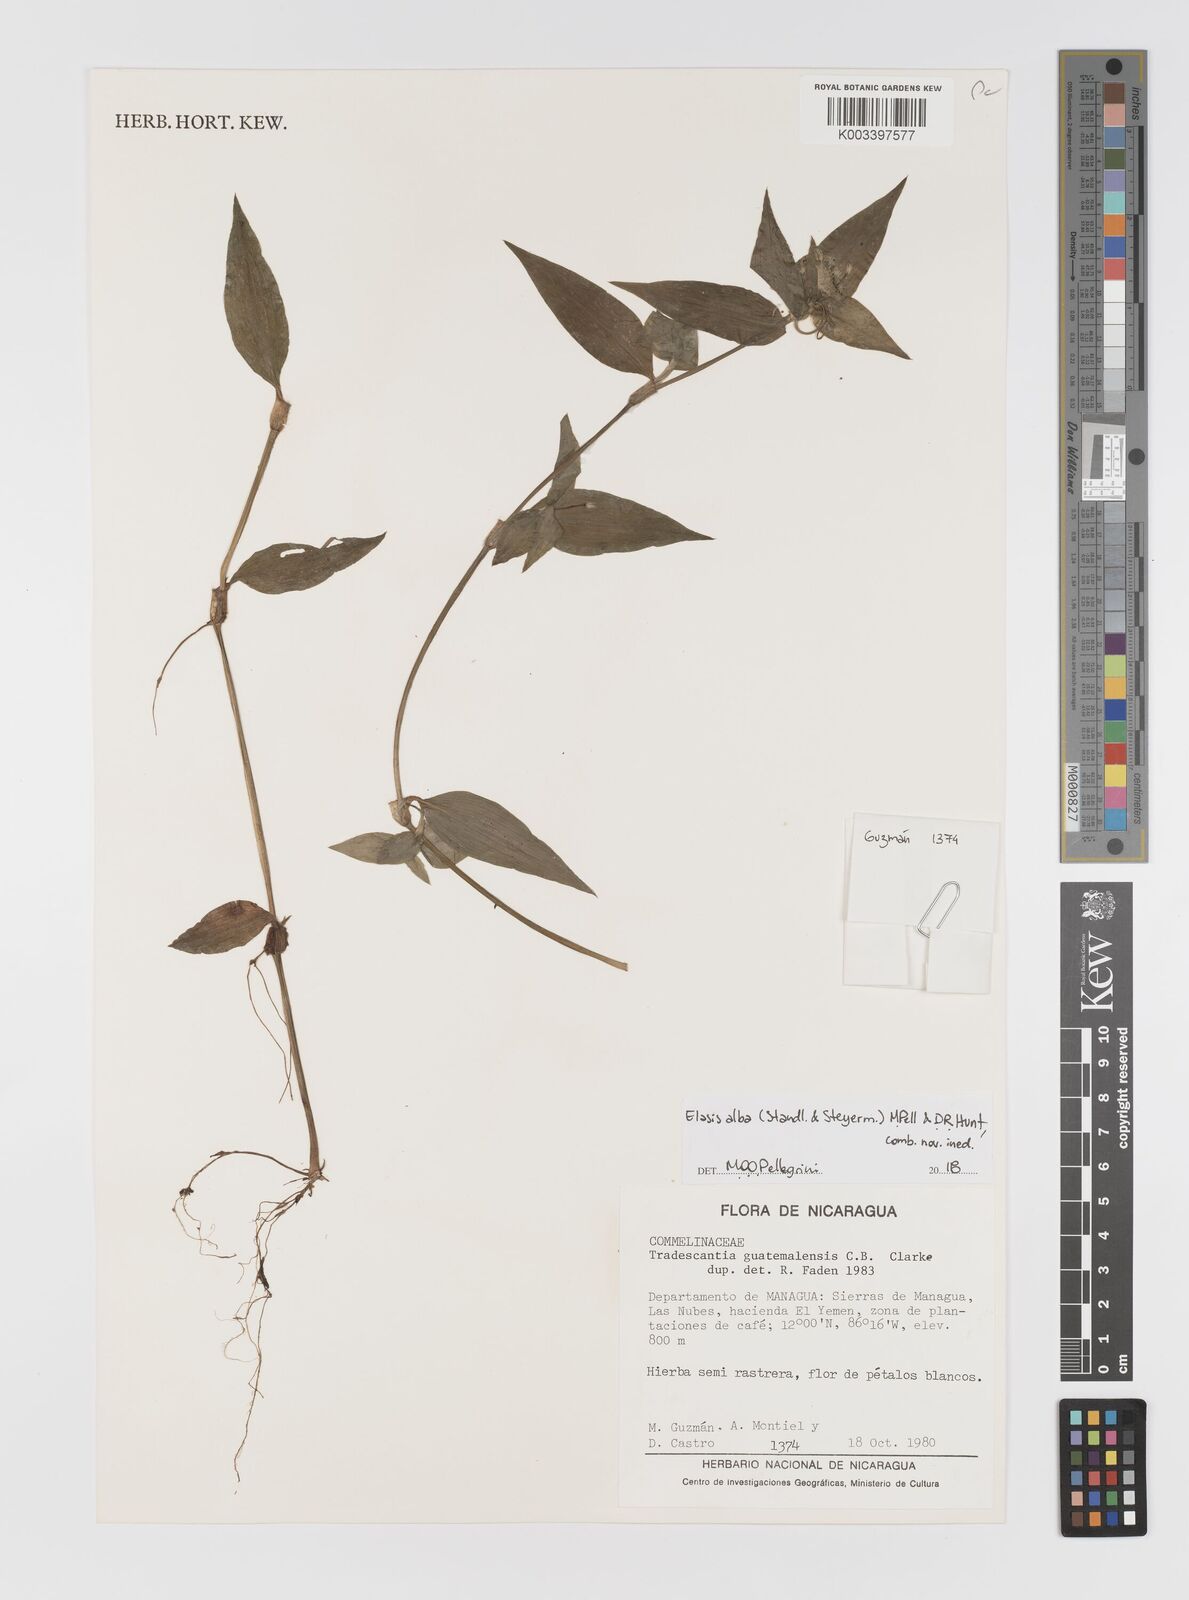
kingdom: Plantae
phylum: Tracheophyta
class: Liliopsida
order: Commelinales
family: Commelinaceae
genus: Elasis
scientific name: Elasis
